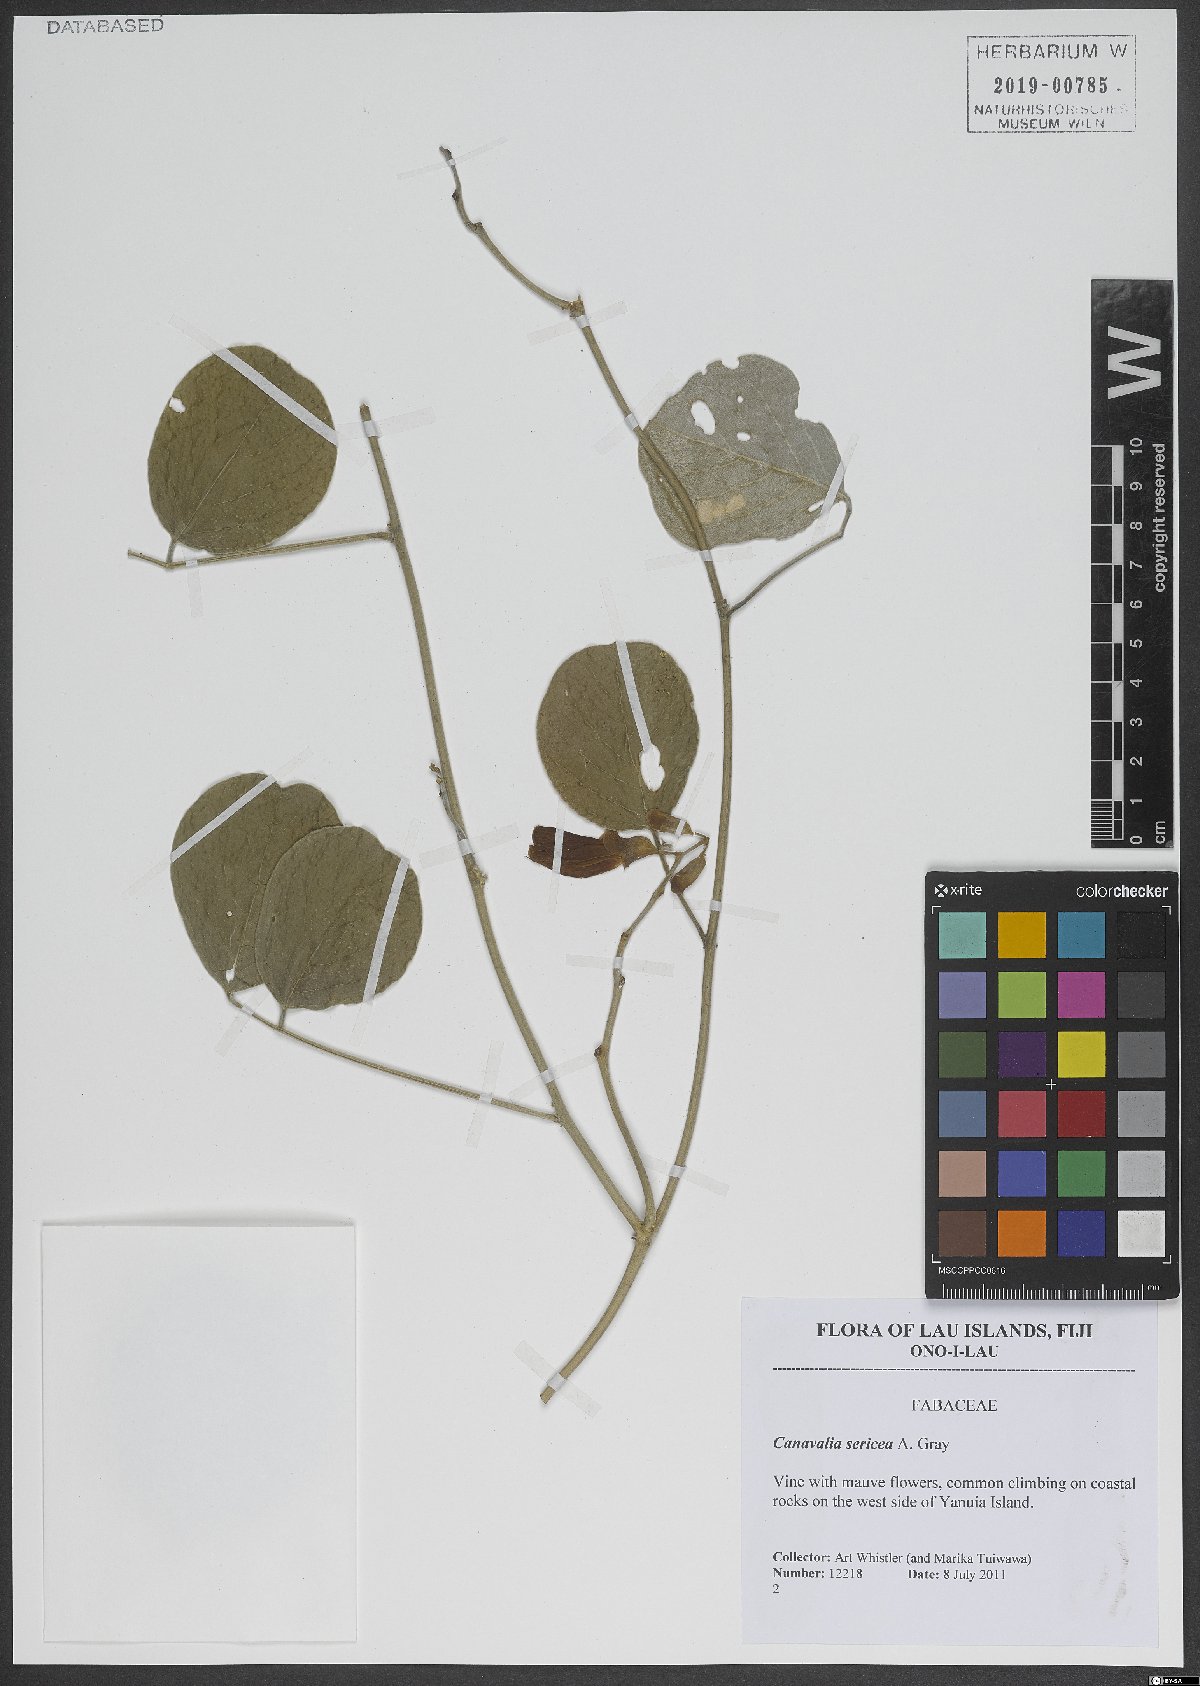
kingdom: Plantae
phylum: Tracheophyta
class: Magnoliopsida
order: Fabales
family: Fabaceae
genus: Canavalia
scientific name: Canavalia sericea
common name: Silky jackbean
